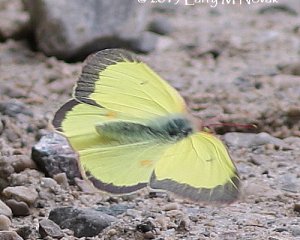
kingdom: Animalia
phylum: Arthropoda
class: Insecta
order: Lepidoptera
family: Pieridae
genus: Colias
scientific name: Colias philodice
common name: Clouded Sulphur
